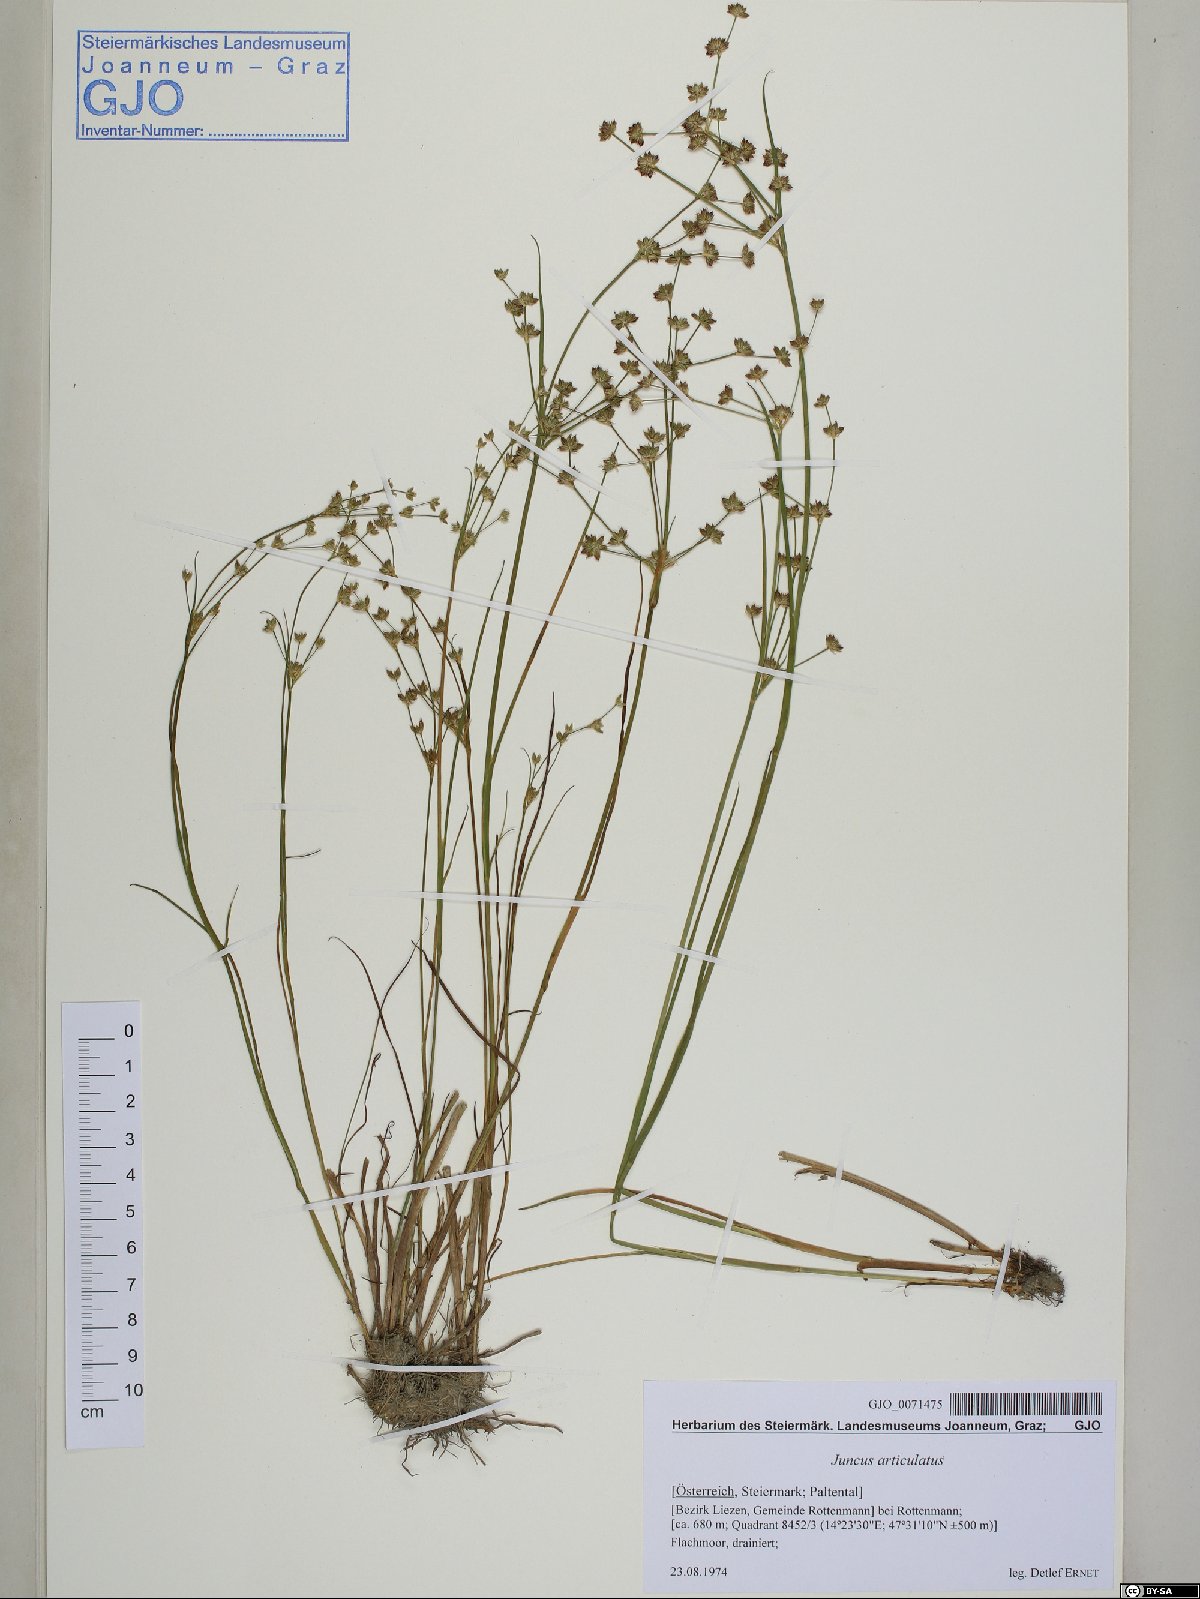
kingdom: Plantae
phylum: Tracheophyta
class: Liliopsida
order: Poales
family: Juncaceae
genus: Juncus
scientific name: Juncus articulatus
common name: Jointed rush
